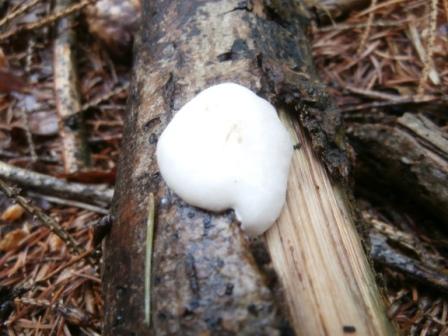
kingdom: Protozoa
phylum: Mycetozoa
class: Myxomycetes
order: Cribrariales
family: Tubiferaceae
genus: Reticularia
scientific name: Reticularia lycoperdon
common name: skinnende støvpude
